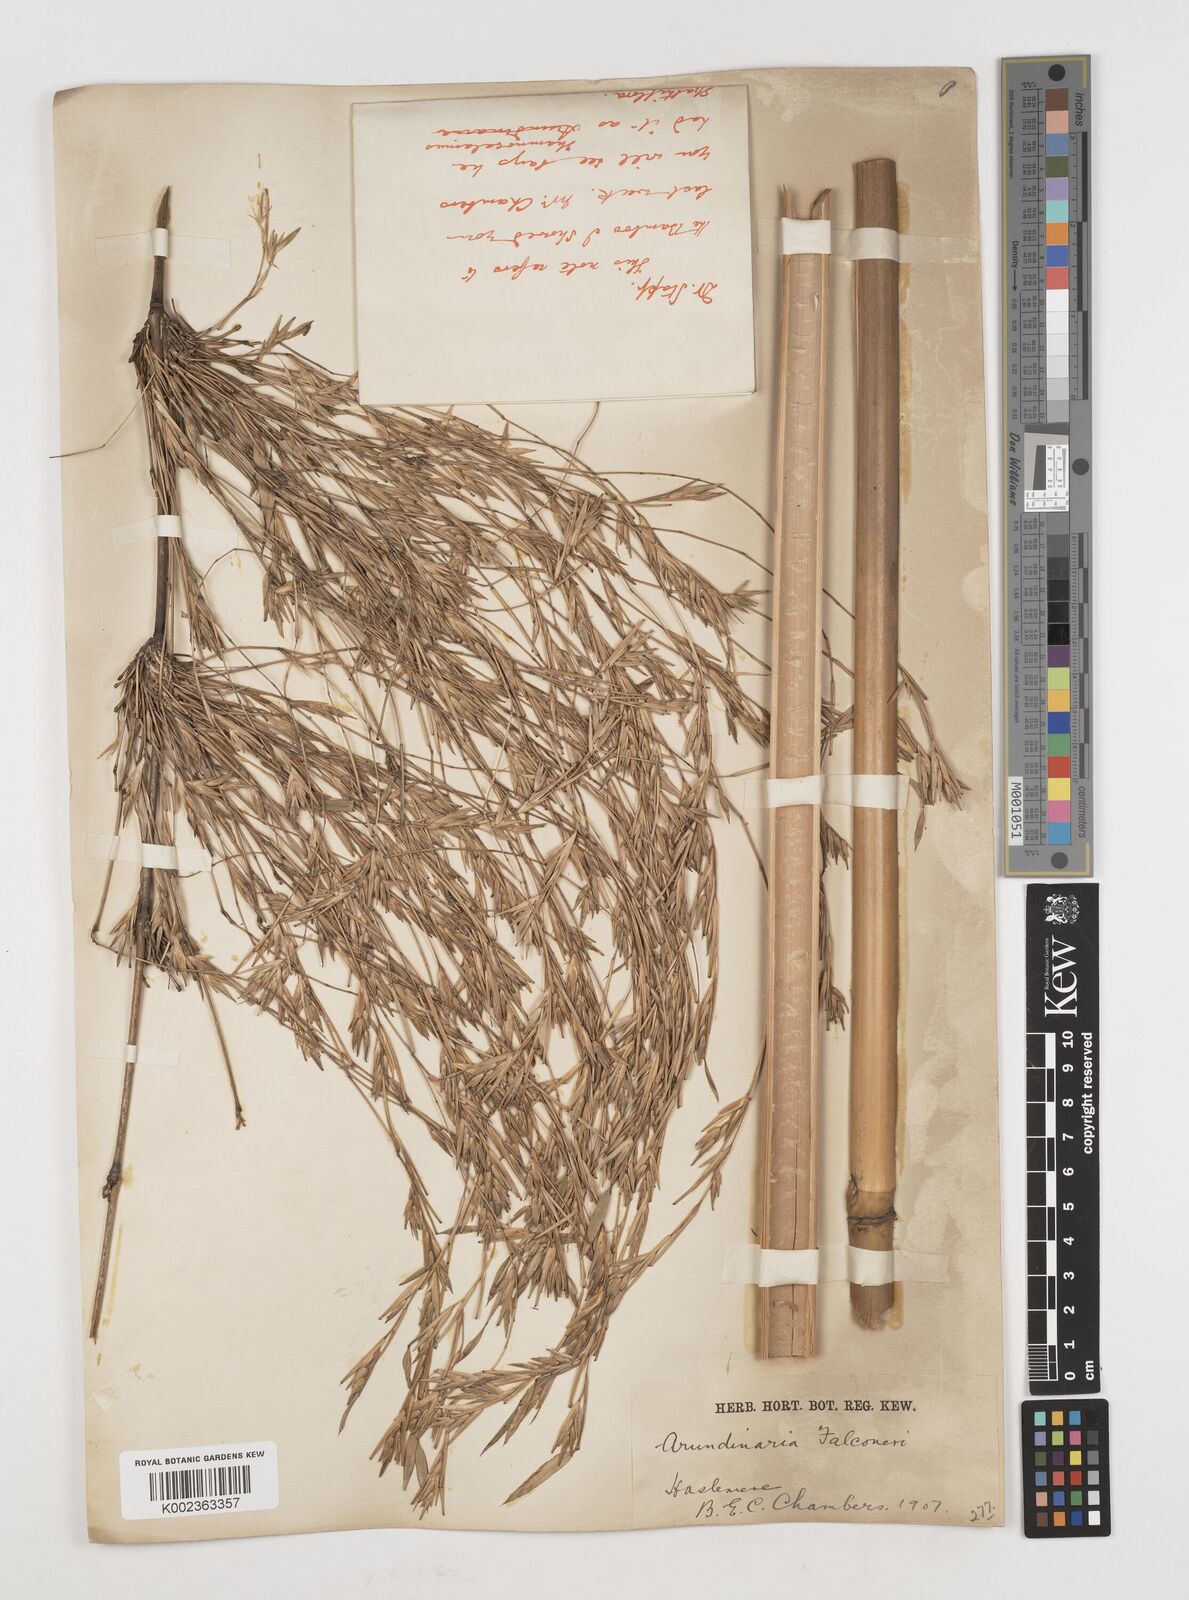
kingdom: Plantae
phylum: Tracheophyta
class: Liliopsida
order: Poales
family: Poaceae
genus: Himalayacalamus
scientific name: Himalayacalamus falconeri
